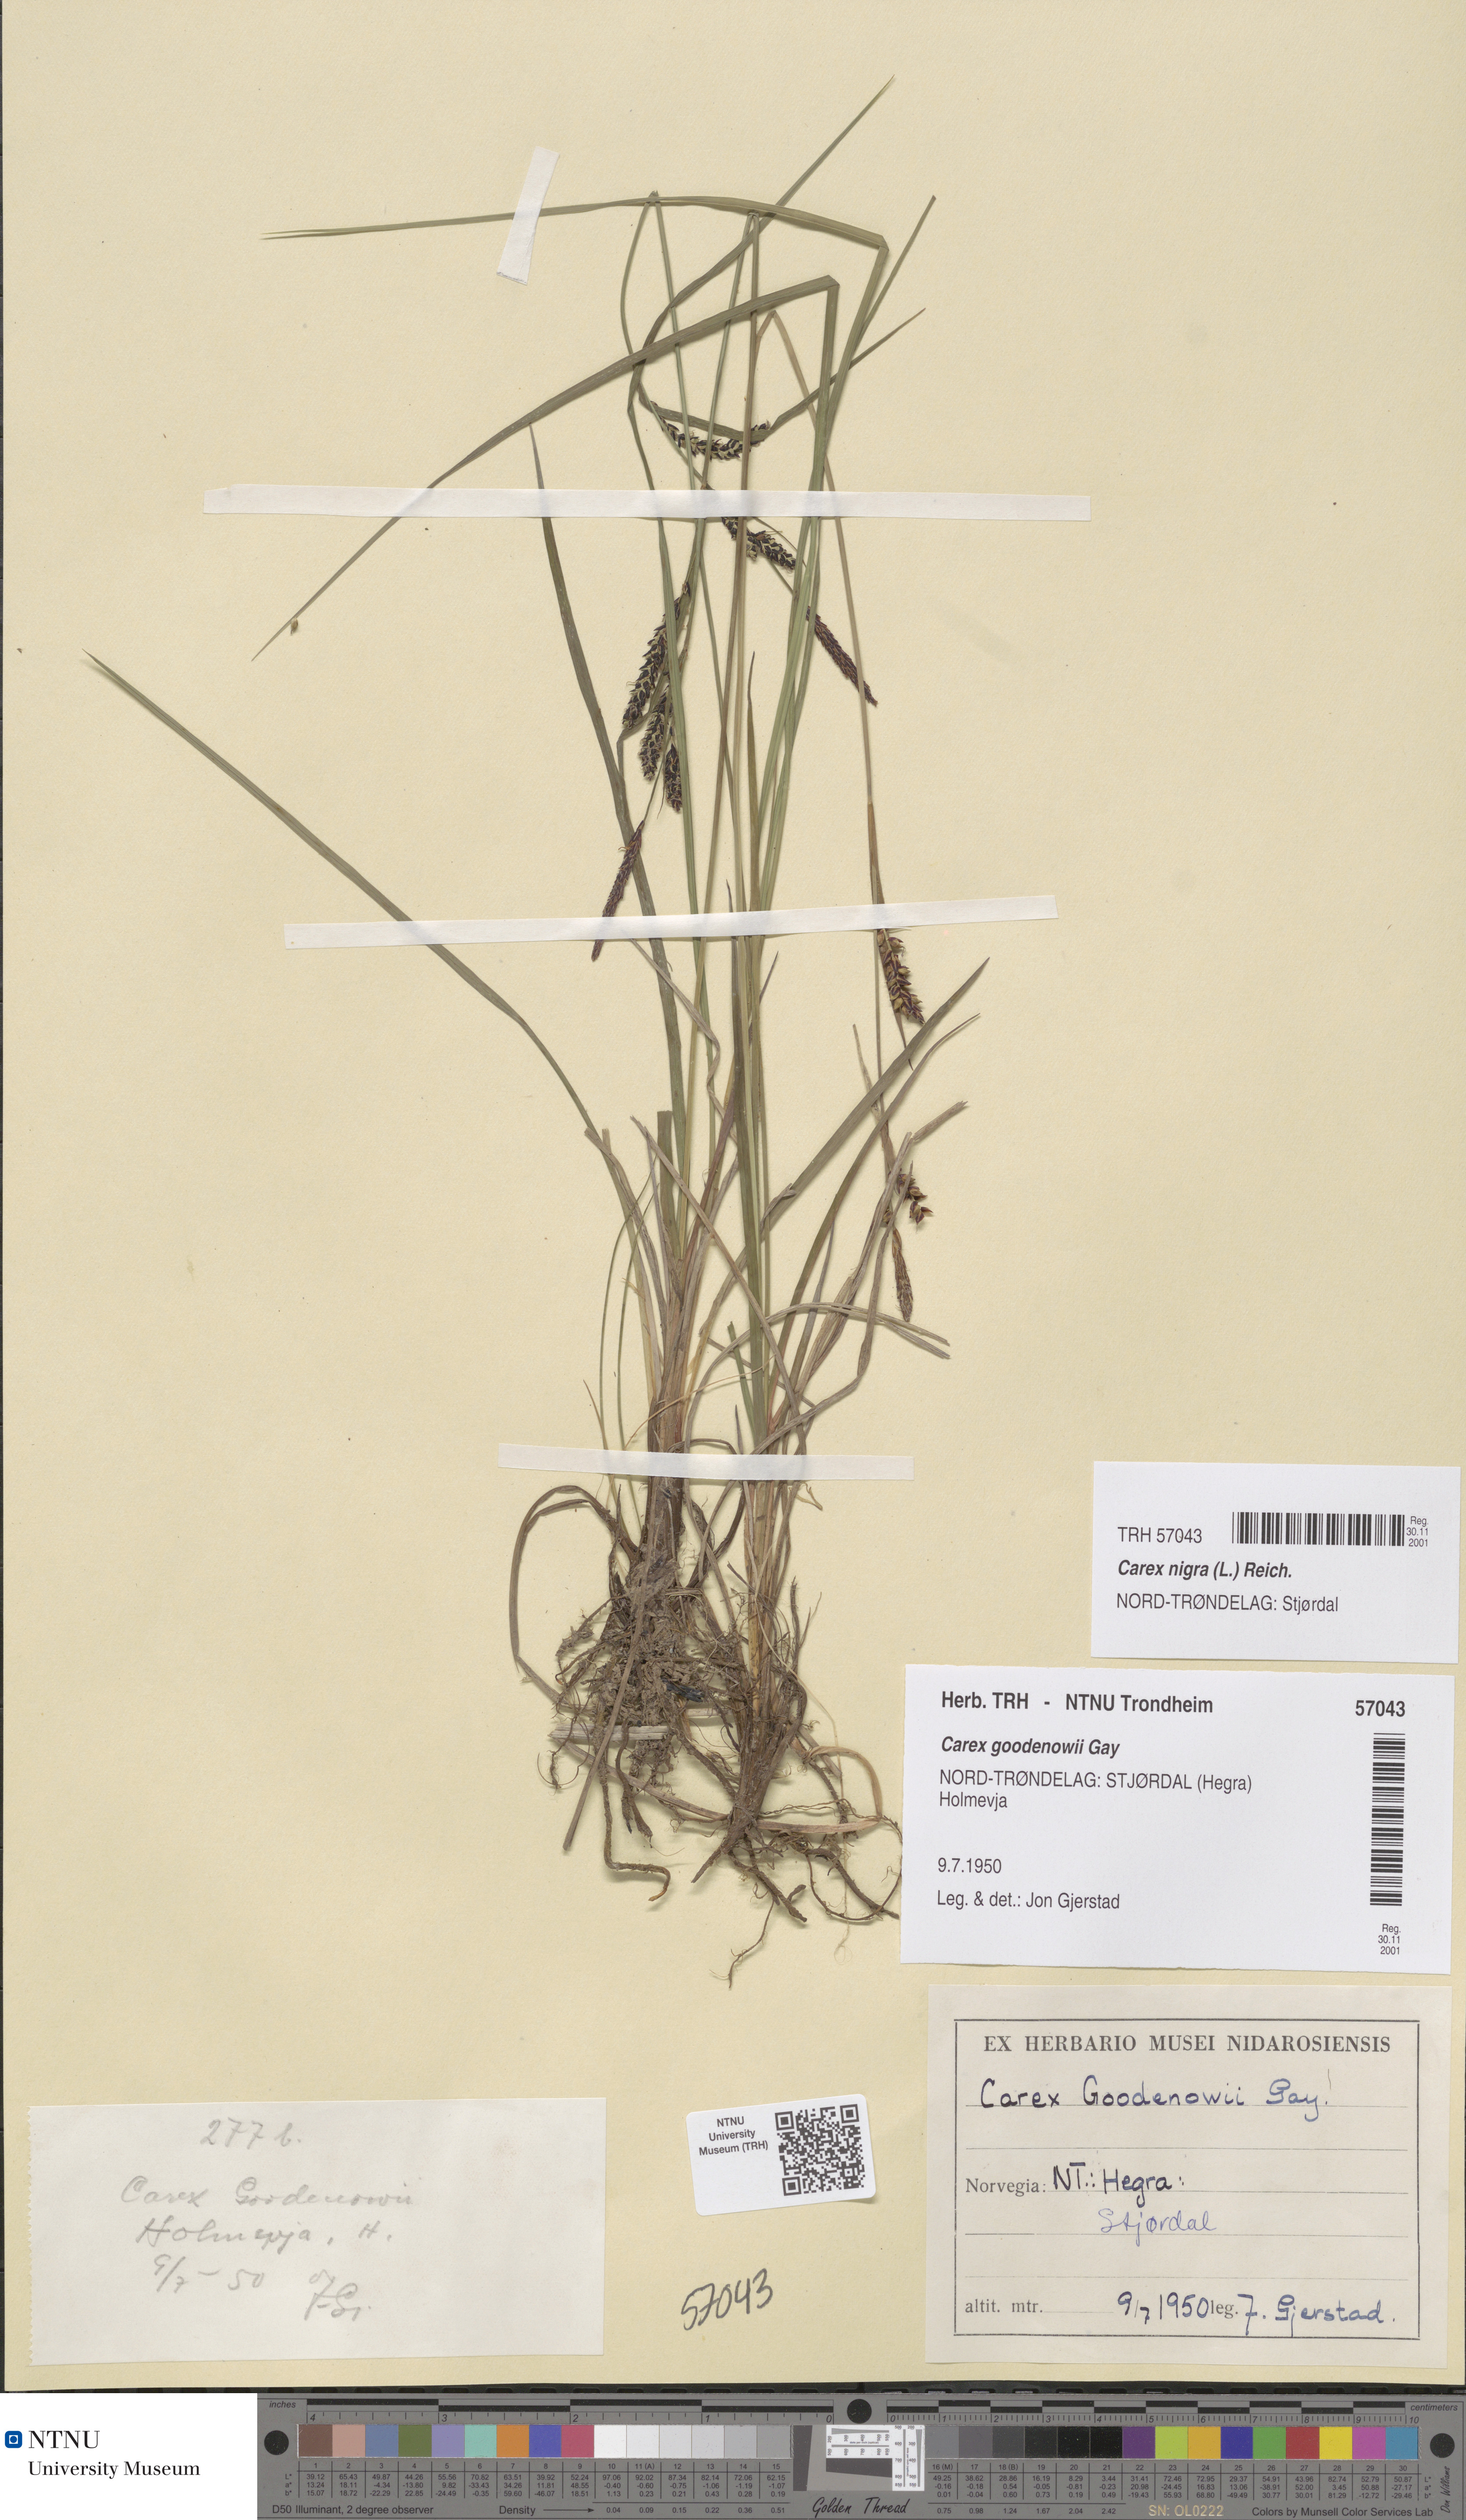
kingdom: Plantae
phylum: Tracheophyta
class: Liliopsida
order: Poales
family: Cyperaceae
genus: Carex
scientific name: Carex nigra
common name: Common sedge
